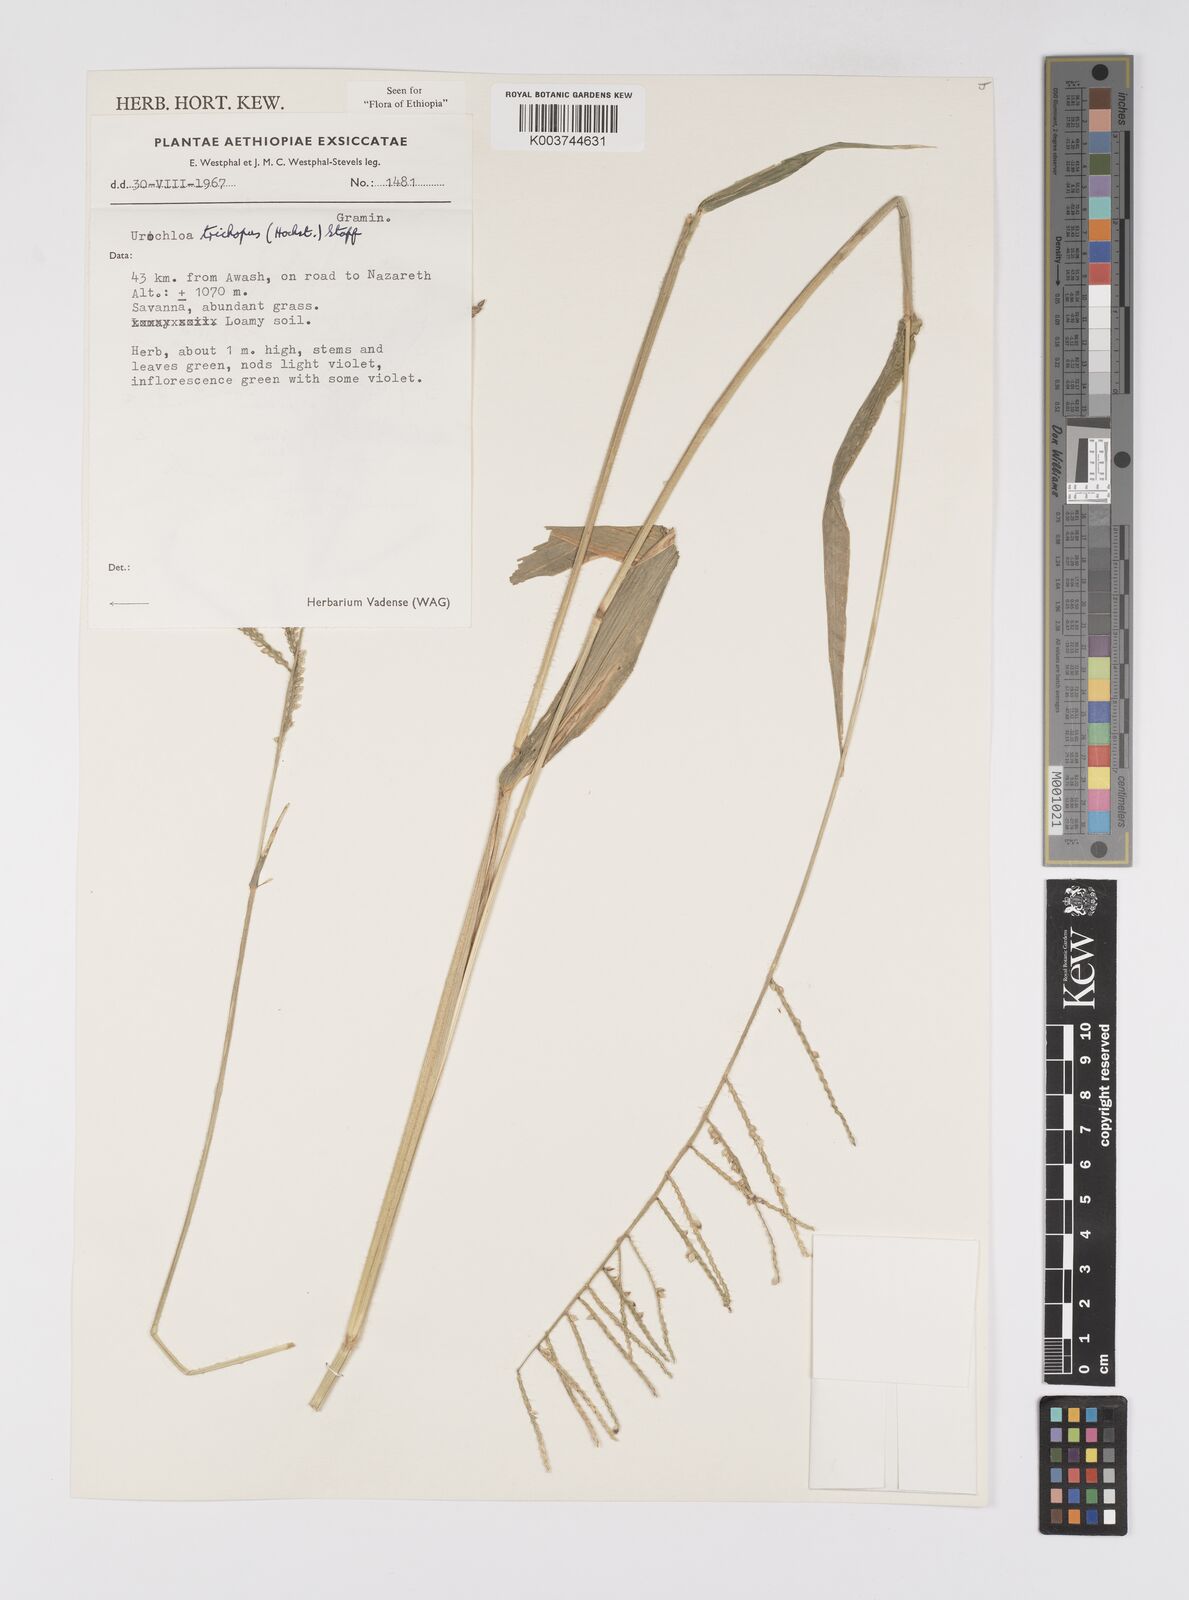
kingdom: Plantae
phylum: Tracheophyta
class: Liliopsida
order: Poales
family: Poaceae
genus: Urochloa
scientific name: Urochloa trichopus
